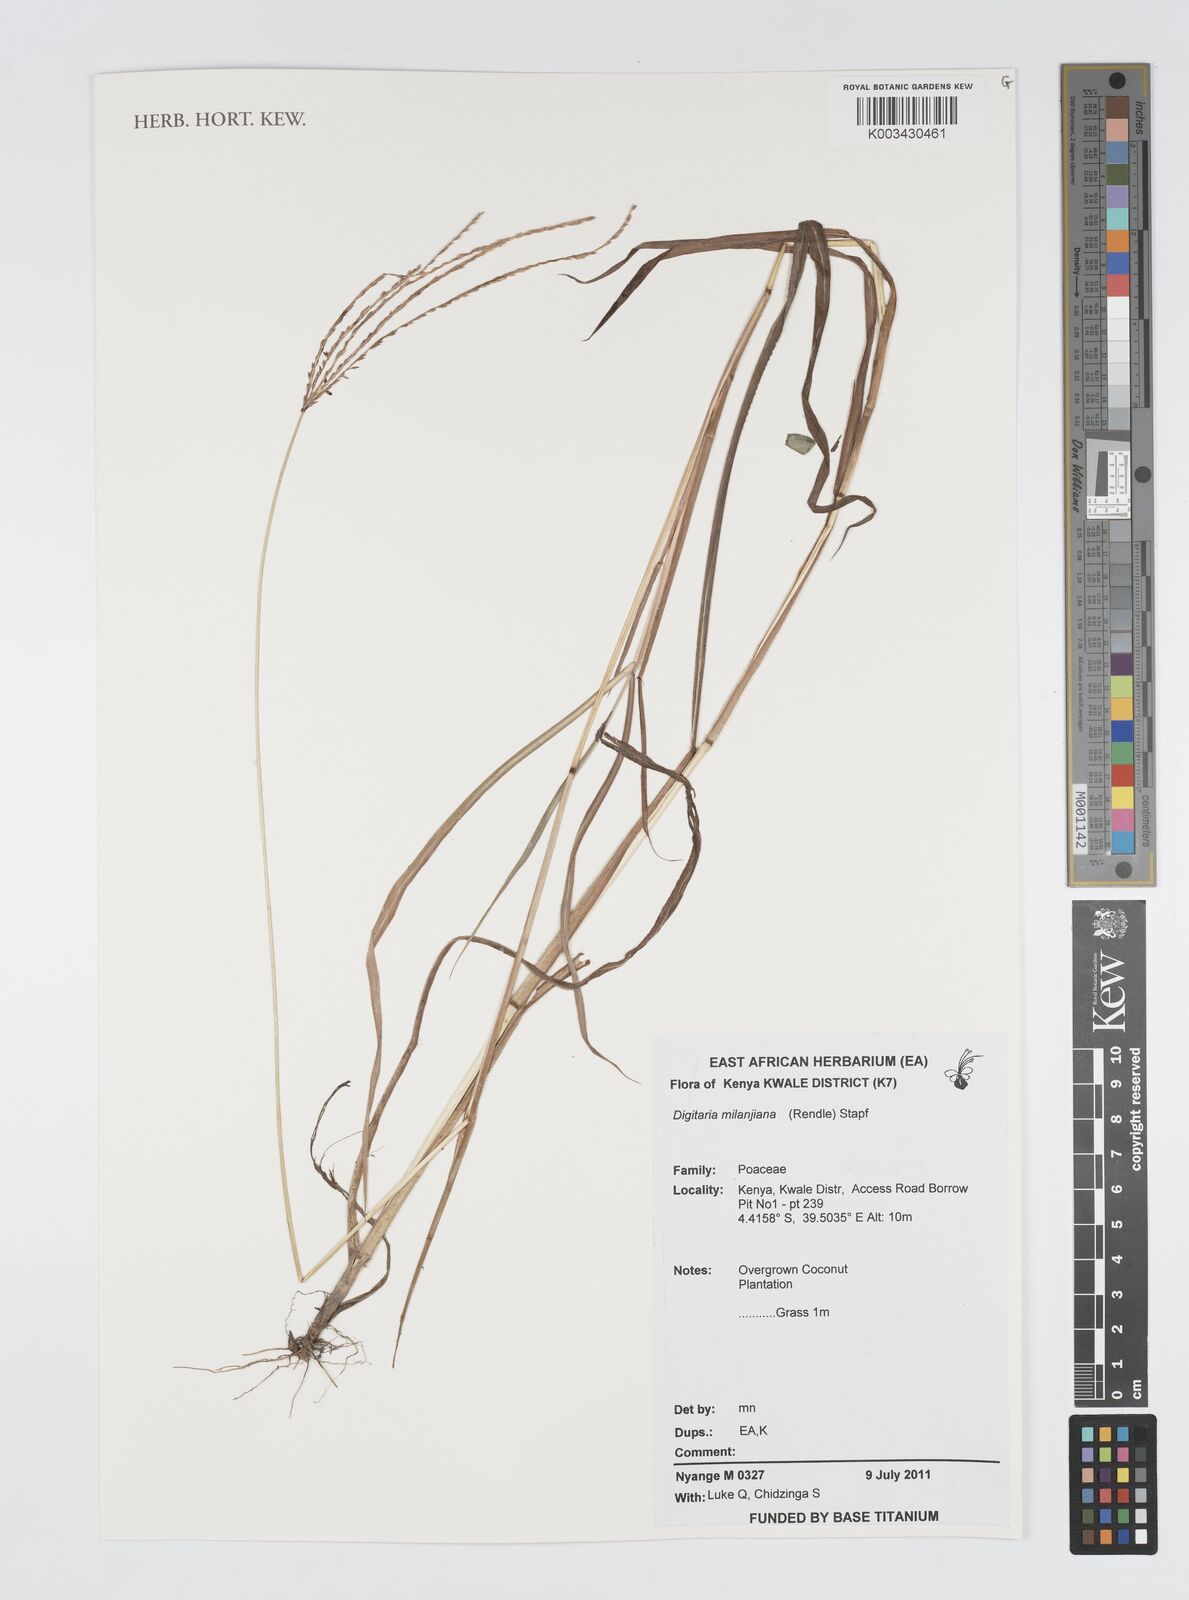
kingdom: Plantae
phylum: Tracheophyta
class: Liliopsida
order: Poales
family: Poaceae
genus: Digitaria
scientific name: Digitaria milanjiana
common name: Madagascar crabgrass
